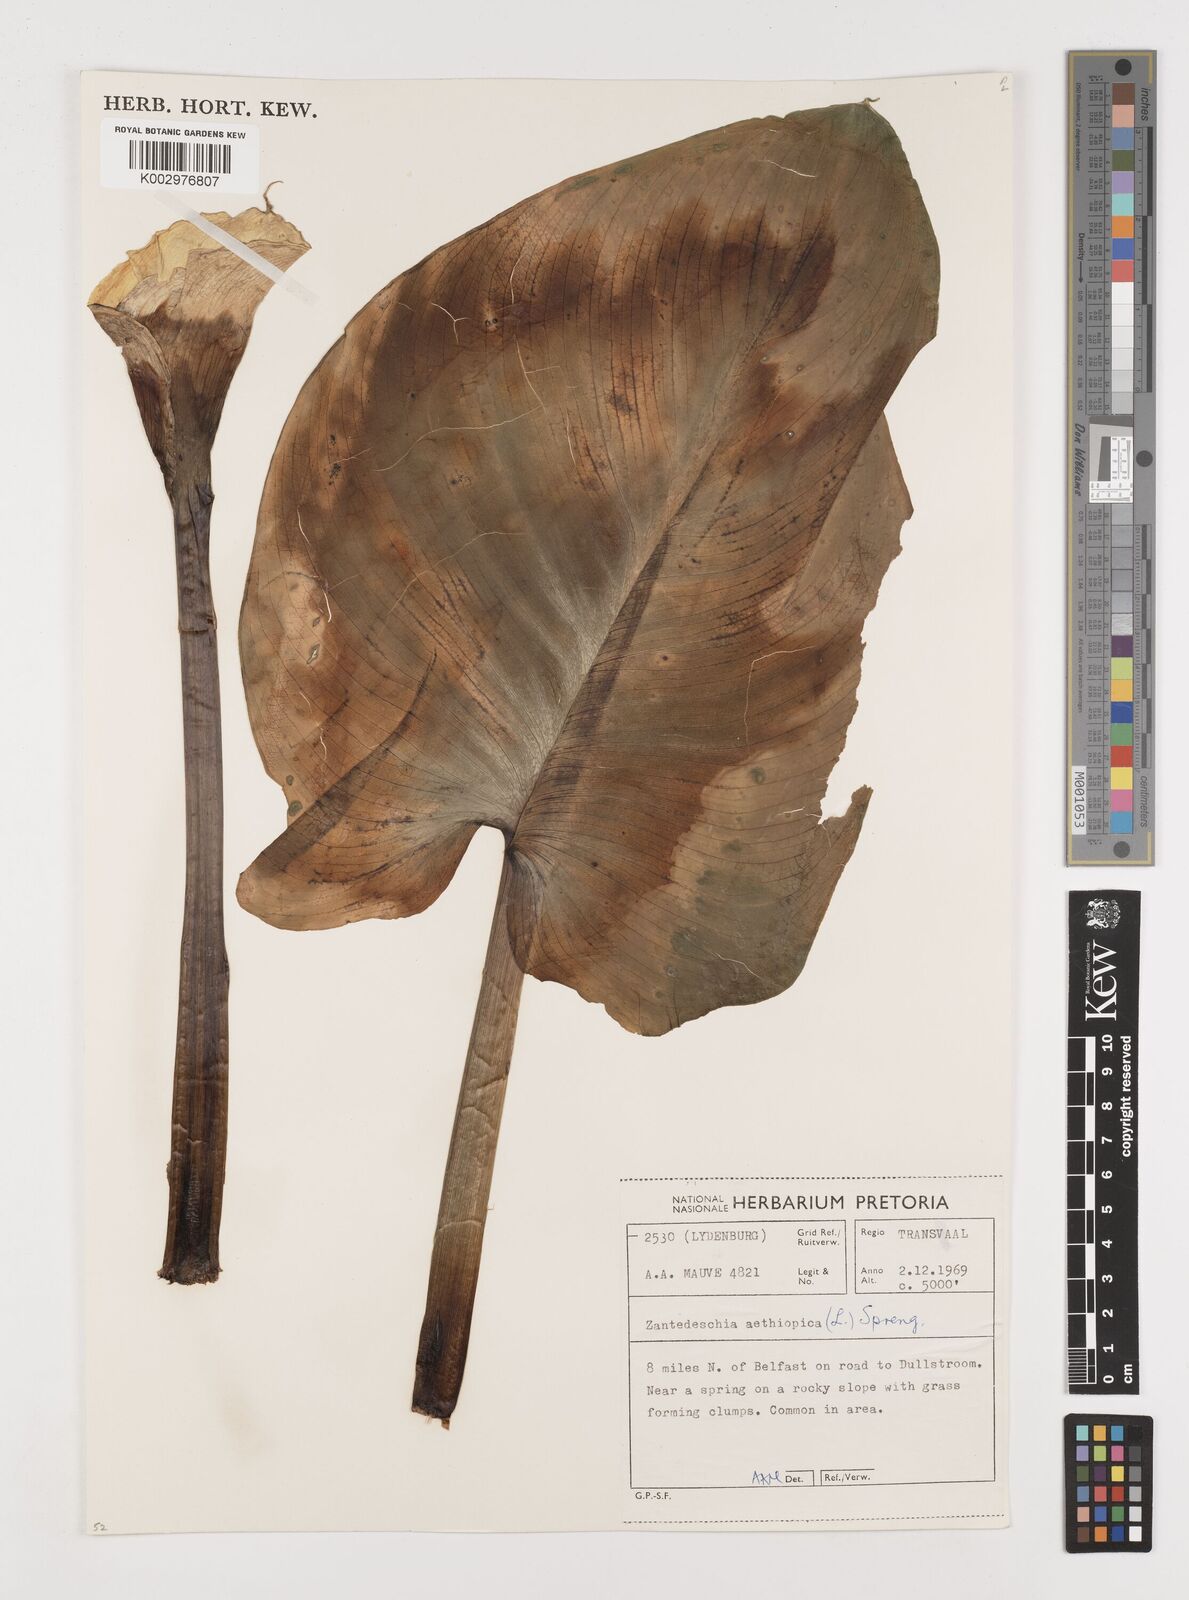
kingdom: Plantae
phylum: Tracheophyta
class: Liliopsida
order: Alismatales
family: Araceae
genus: Zantedeschia
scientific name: Zantedeschia aethiopica
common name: Altar-lily
